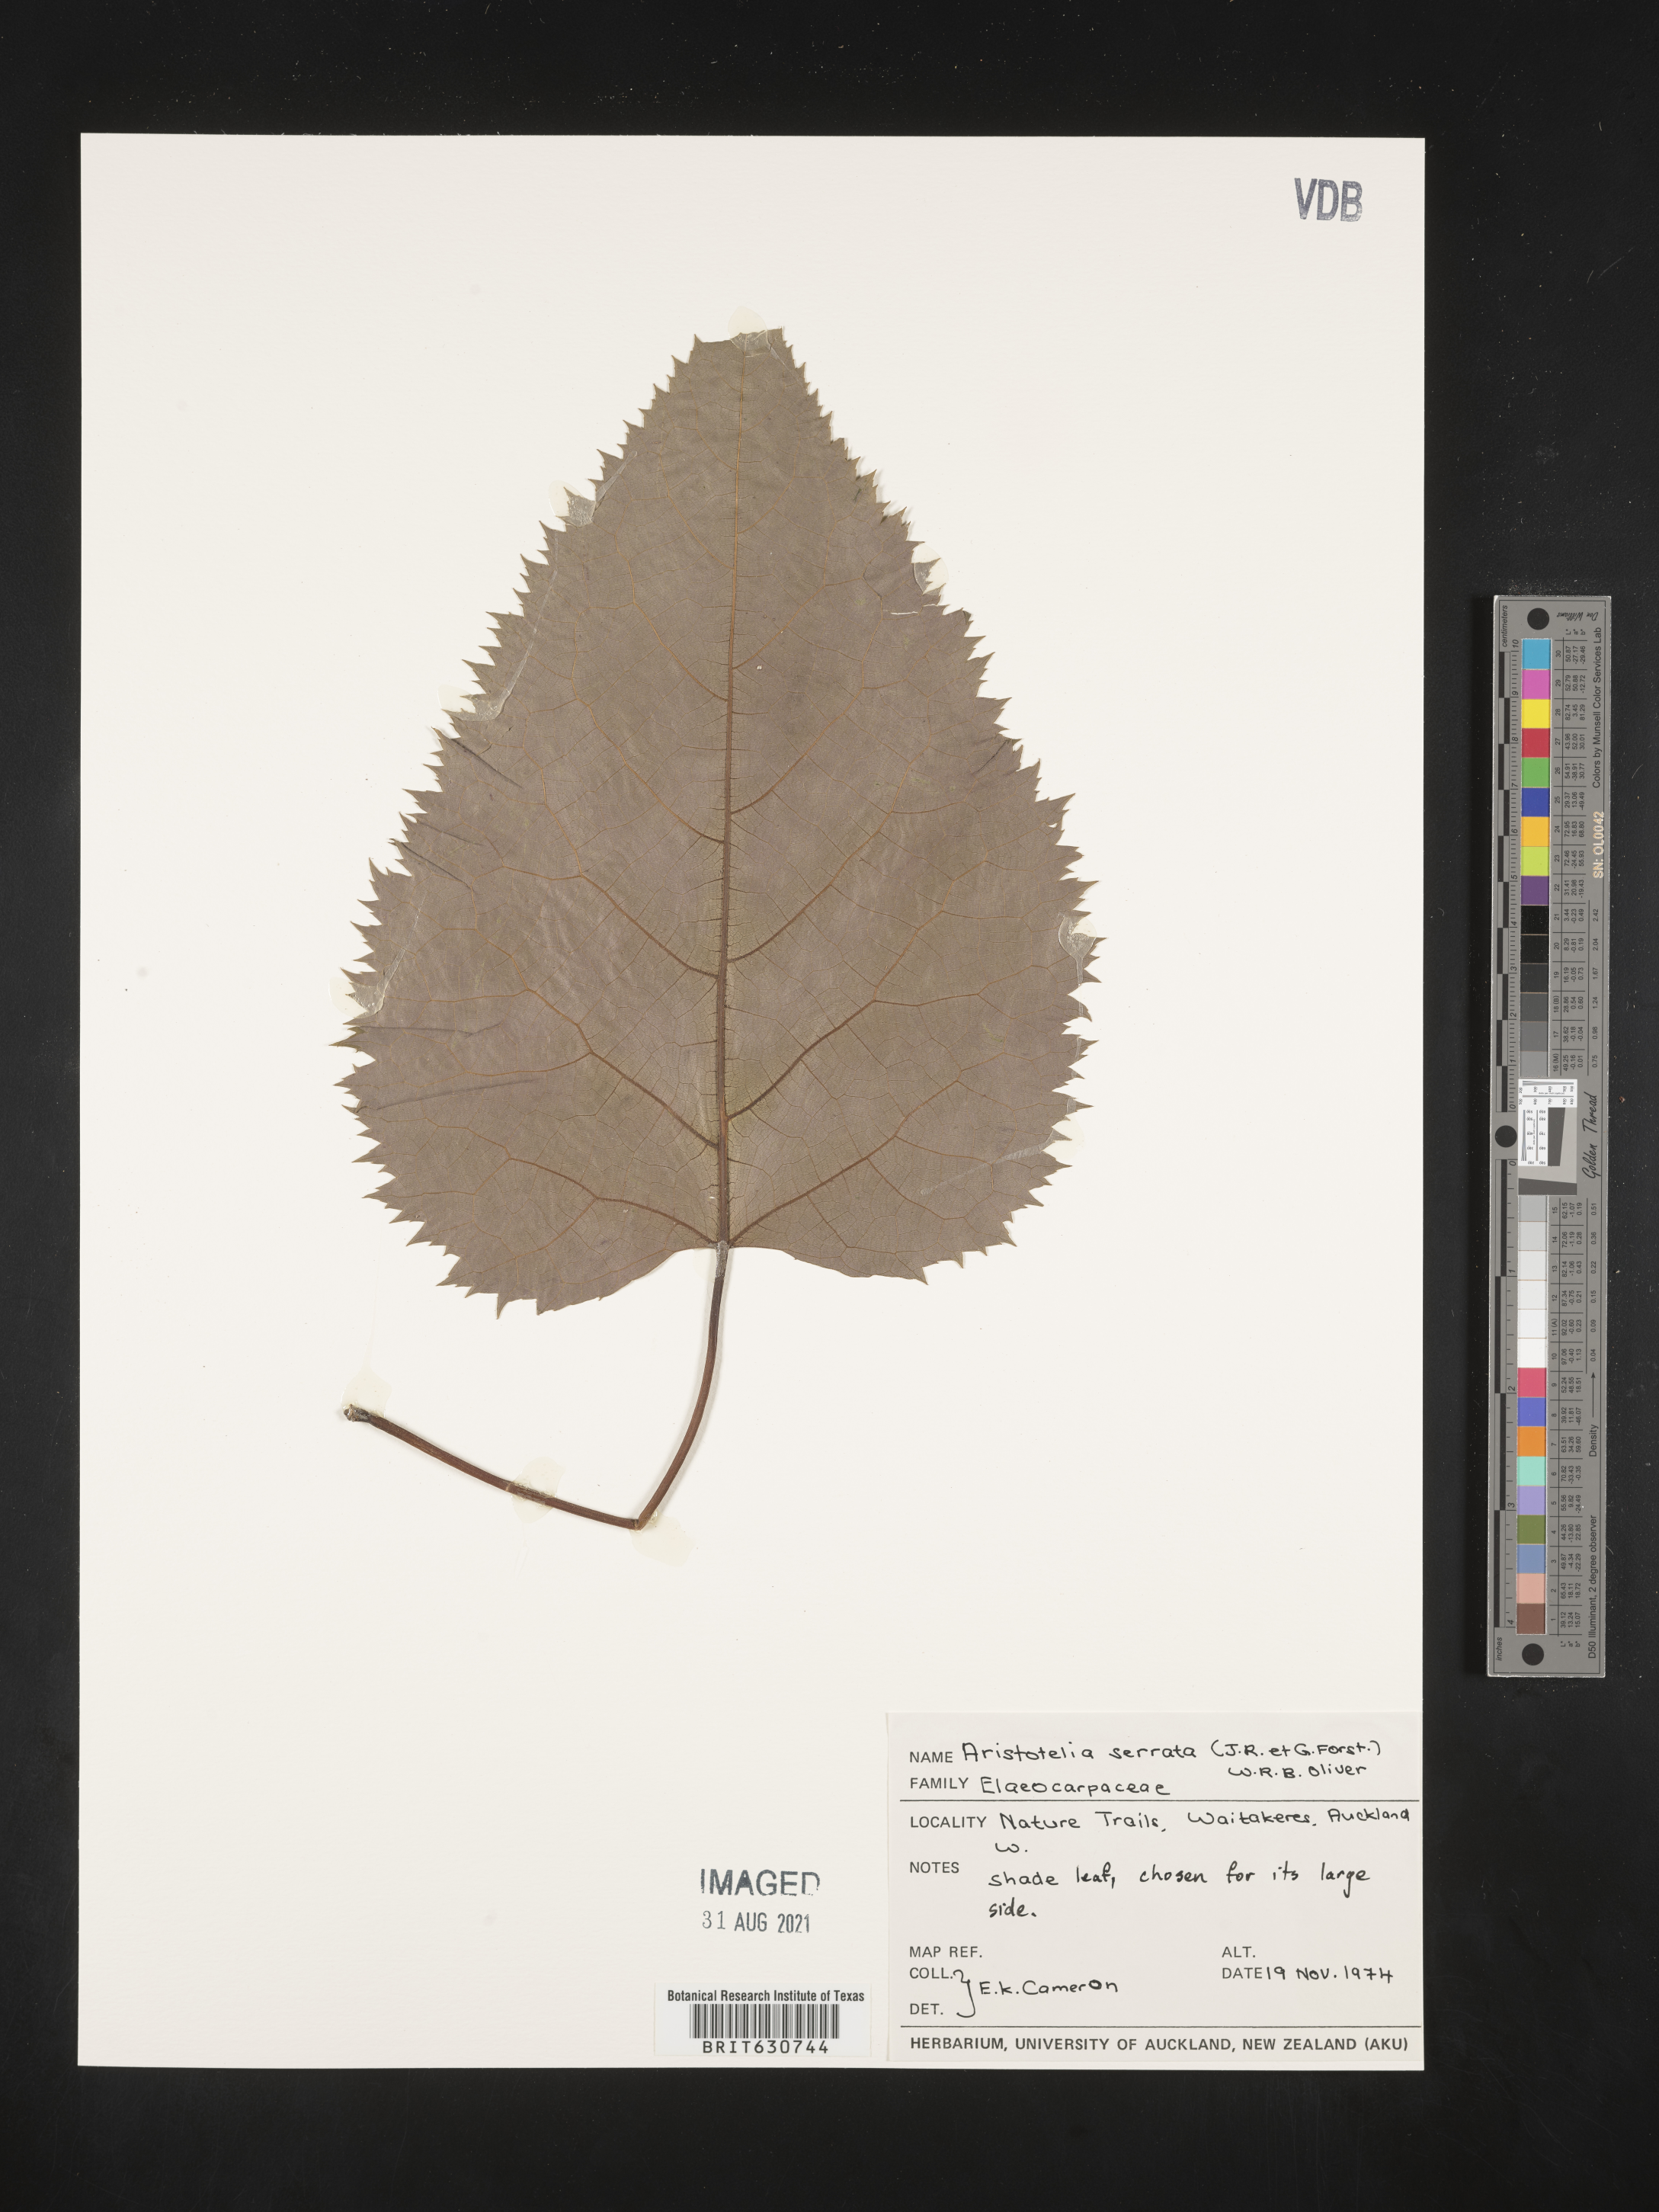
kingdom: Plantae
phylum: Tracheophyta
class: Magnoliopsida
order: Oxalidales
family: Elaeocarpaceae
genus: Aristotelia
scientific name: Aristotelia
